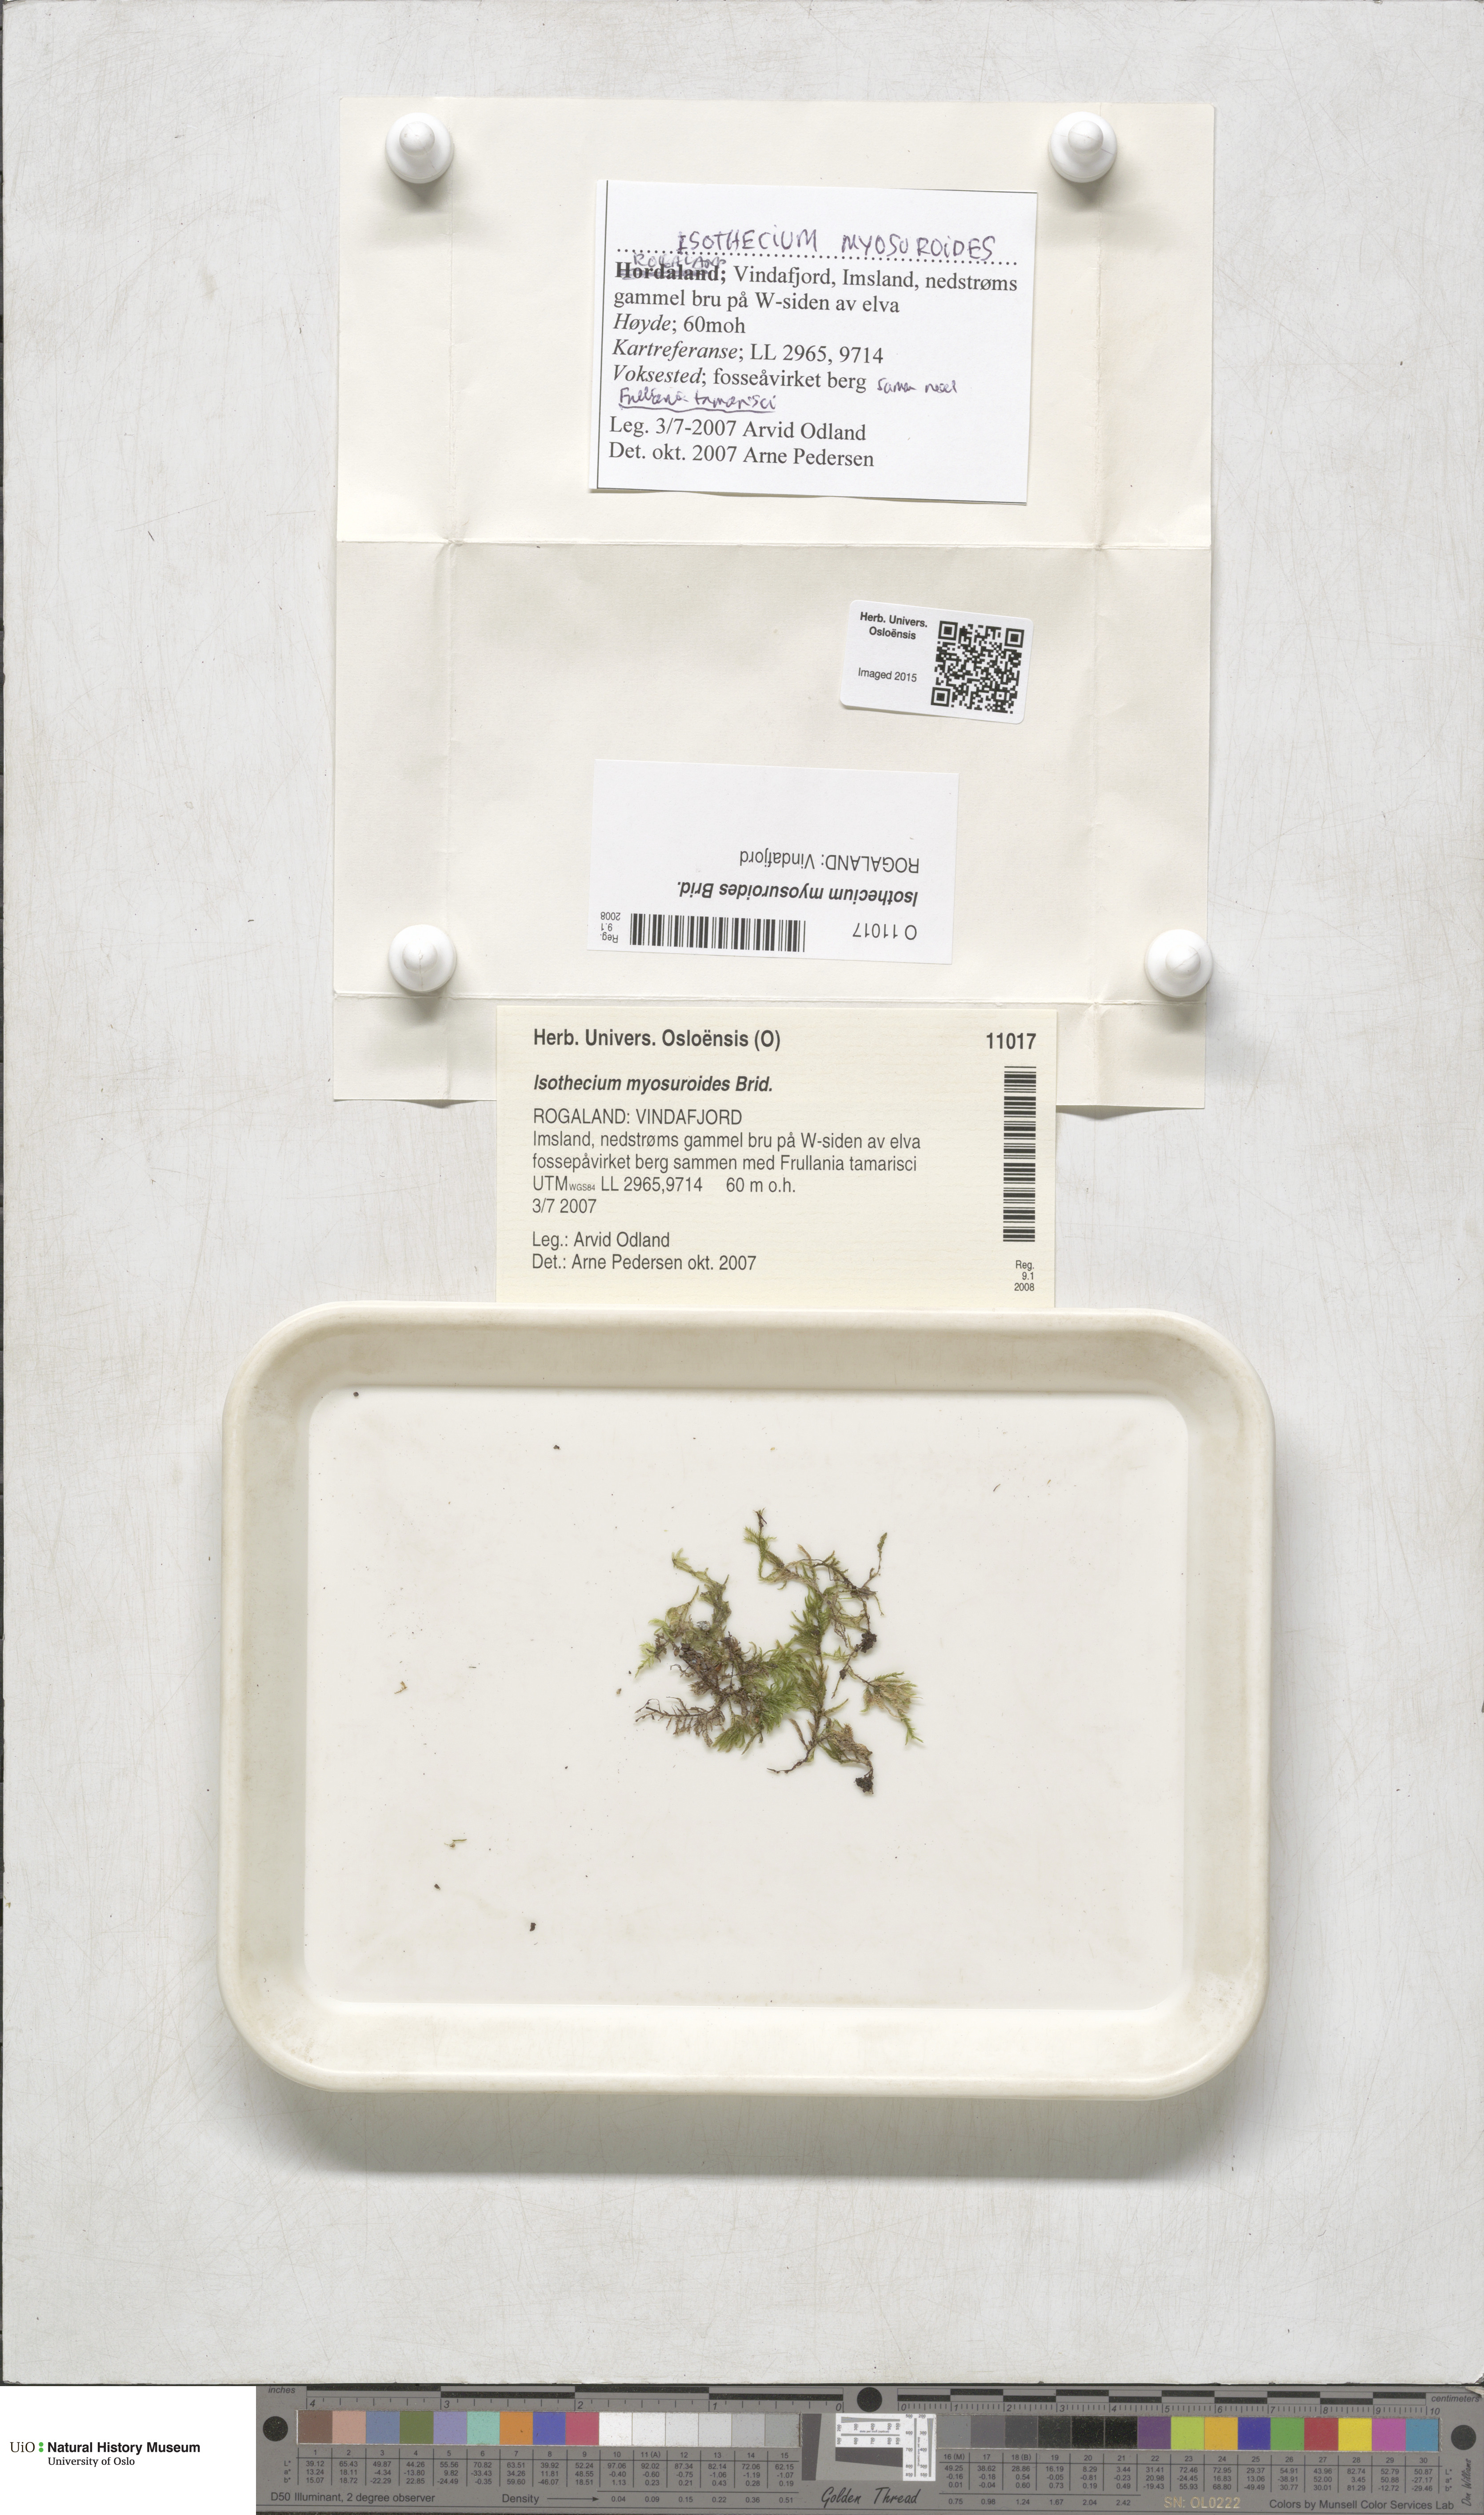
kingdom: Plantae
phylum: Bryophyta
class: Bryopsida
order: Hypnales
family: Lembophyllaceae
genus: Pseudisothecium
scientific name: Pseudisothecium myosuroides
